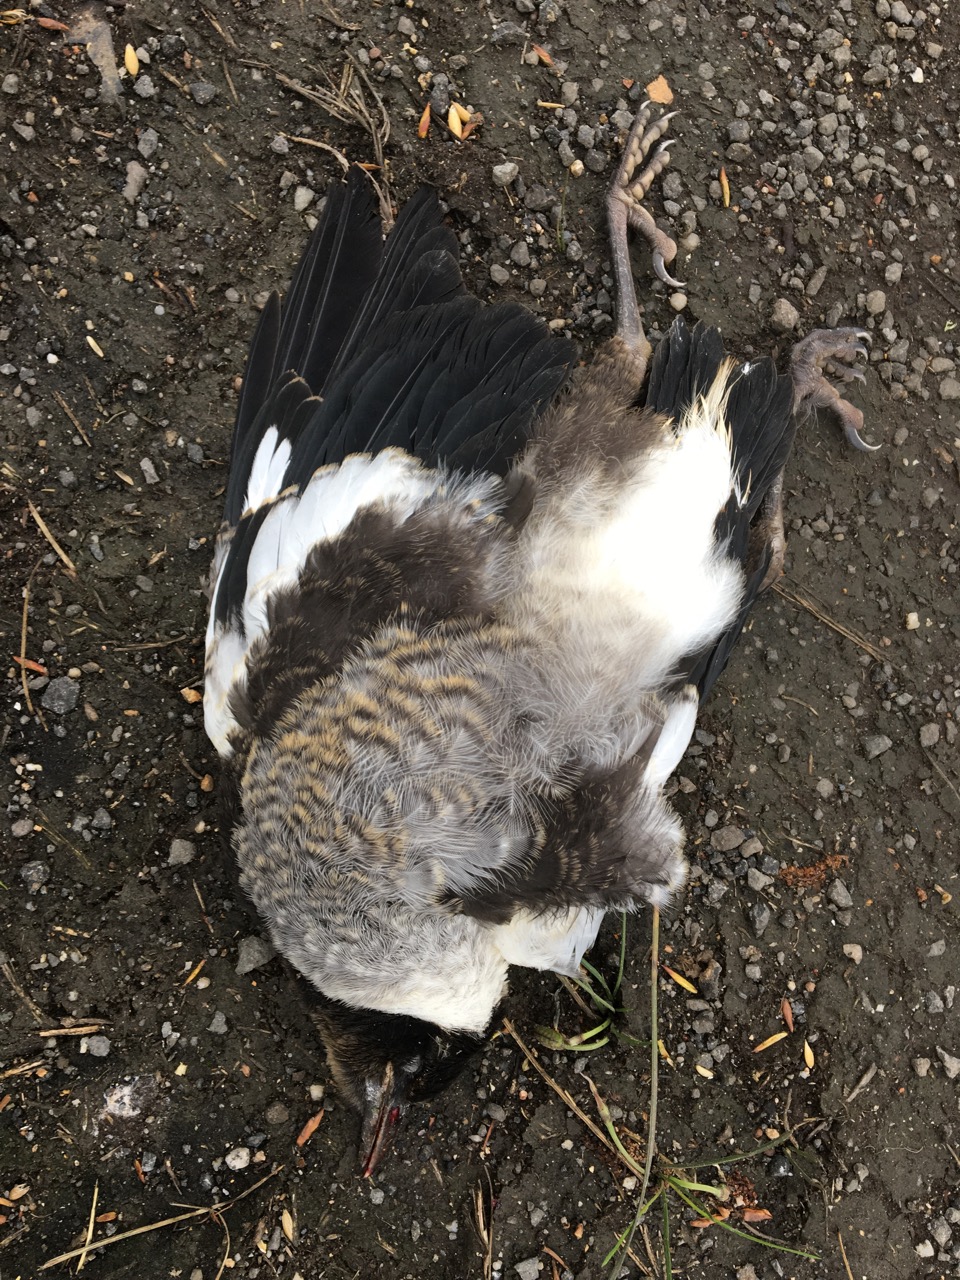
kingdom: Animalia
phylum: Chordata
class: Aves
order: Passeriformes
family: Cracticidae
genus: Gymnorhina
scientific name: Gymnorhina tibicen
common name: Australian magpie
